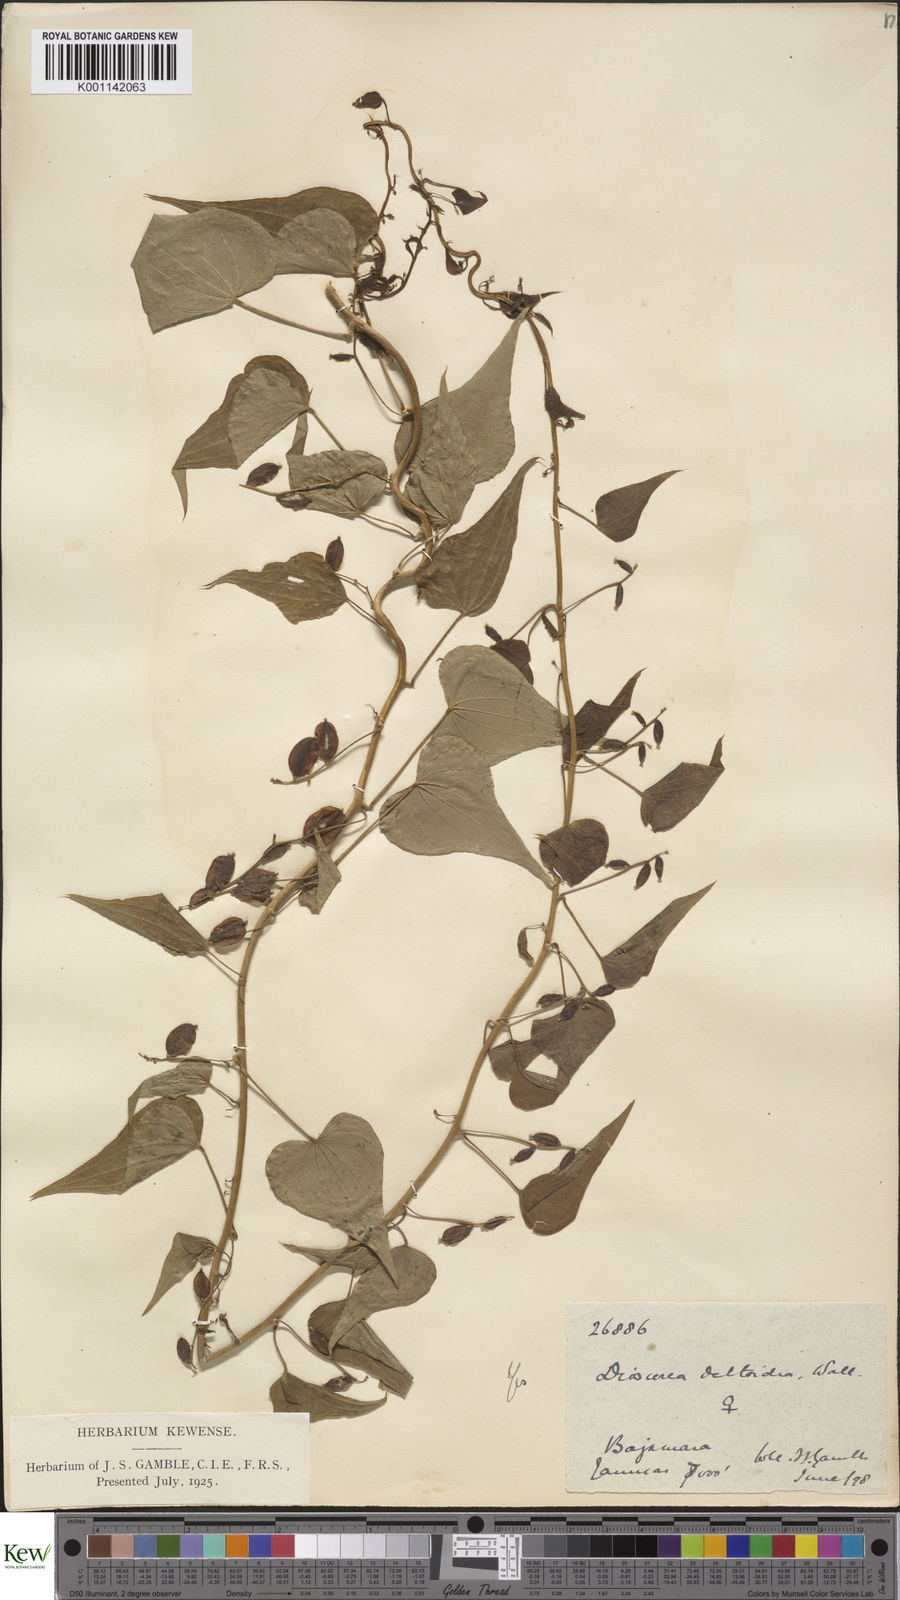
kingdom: Plantae
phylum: Tracheophyta
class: Liliopsida
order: Dioscoreales
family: Dioscoreaceae
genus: Dioscorea
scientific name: Dioscorea deltoidea
